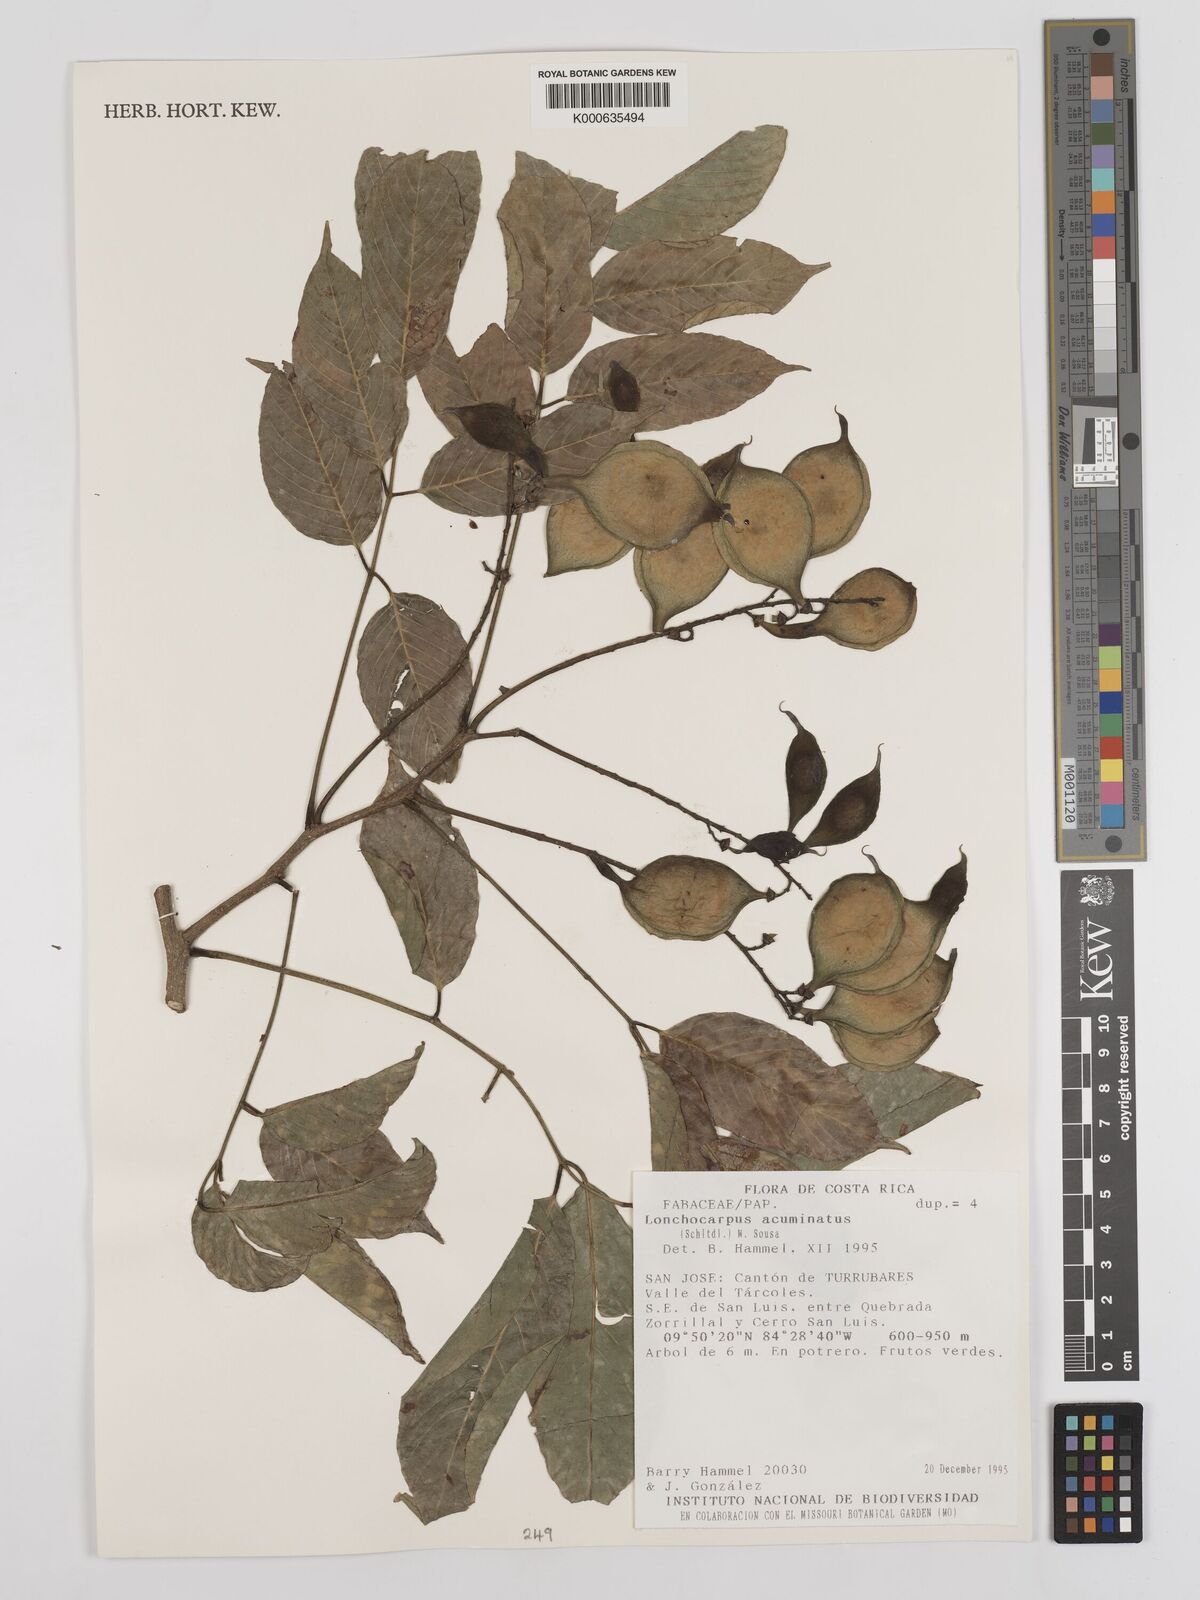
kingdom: Plantae
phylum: Tracheophyta
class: Magnoliopsida
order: Fabales
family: Fabaceae
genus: Lonchocarpus
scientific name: Lonchocarpus acuminatus
